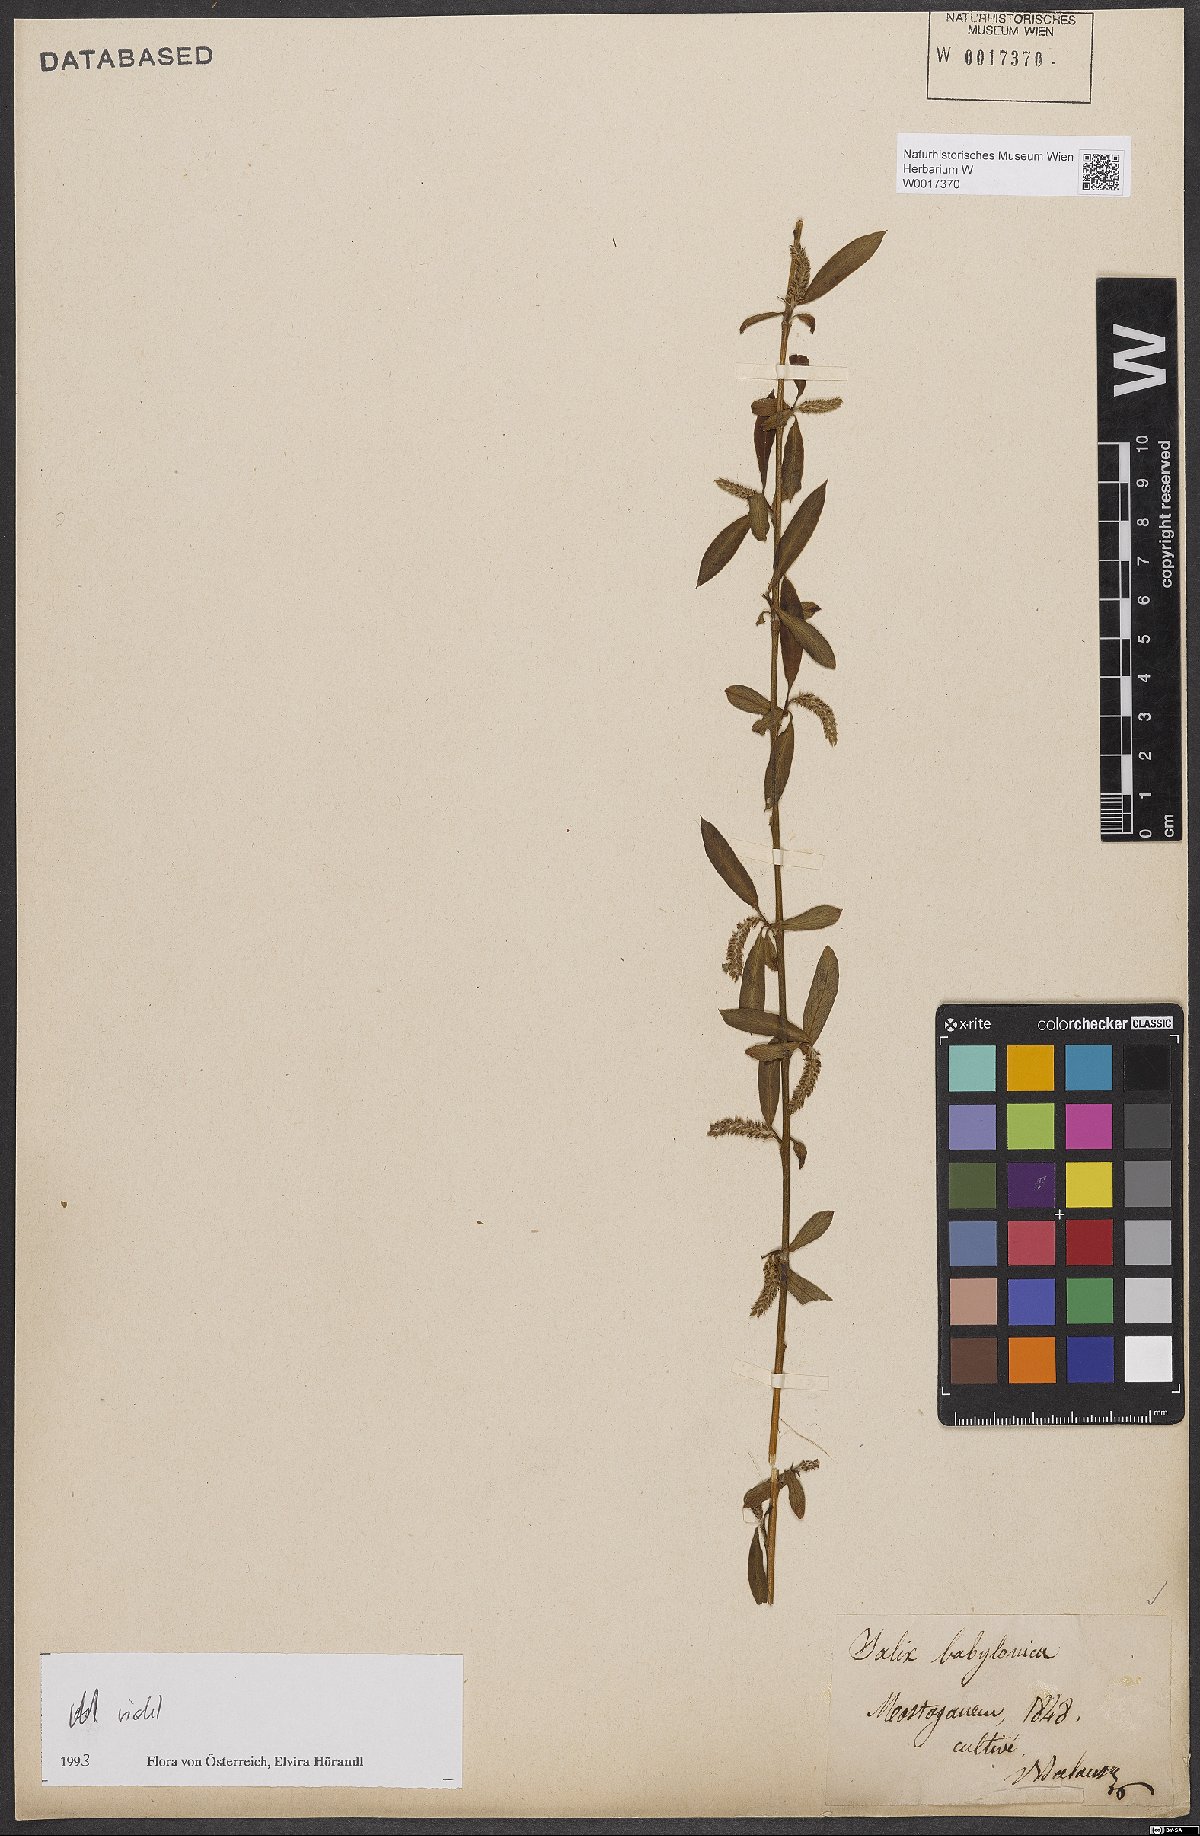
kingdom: Plantae
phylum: Tracheophyta
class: Magnoliopsida
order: Malpighiales
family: Salicaceae
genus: Salix
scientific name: Salix babylonica
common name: Weeping willow
